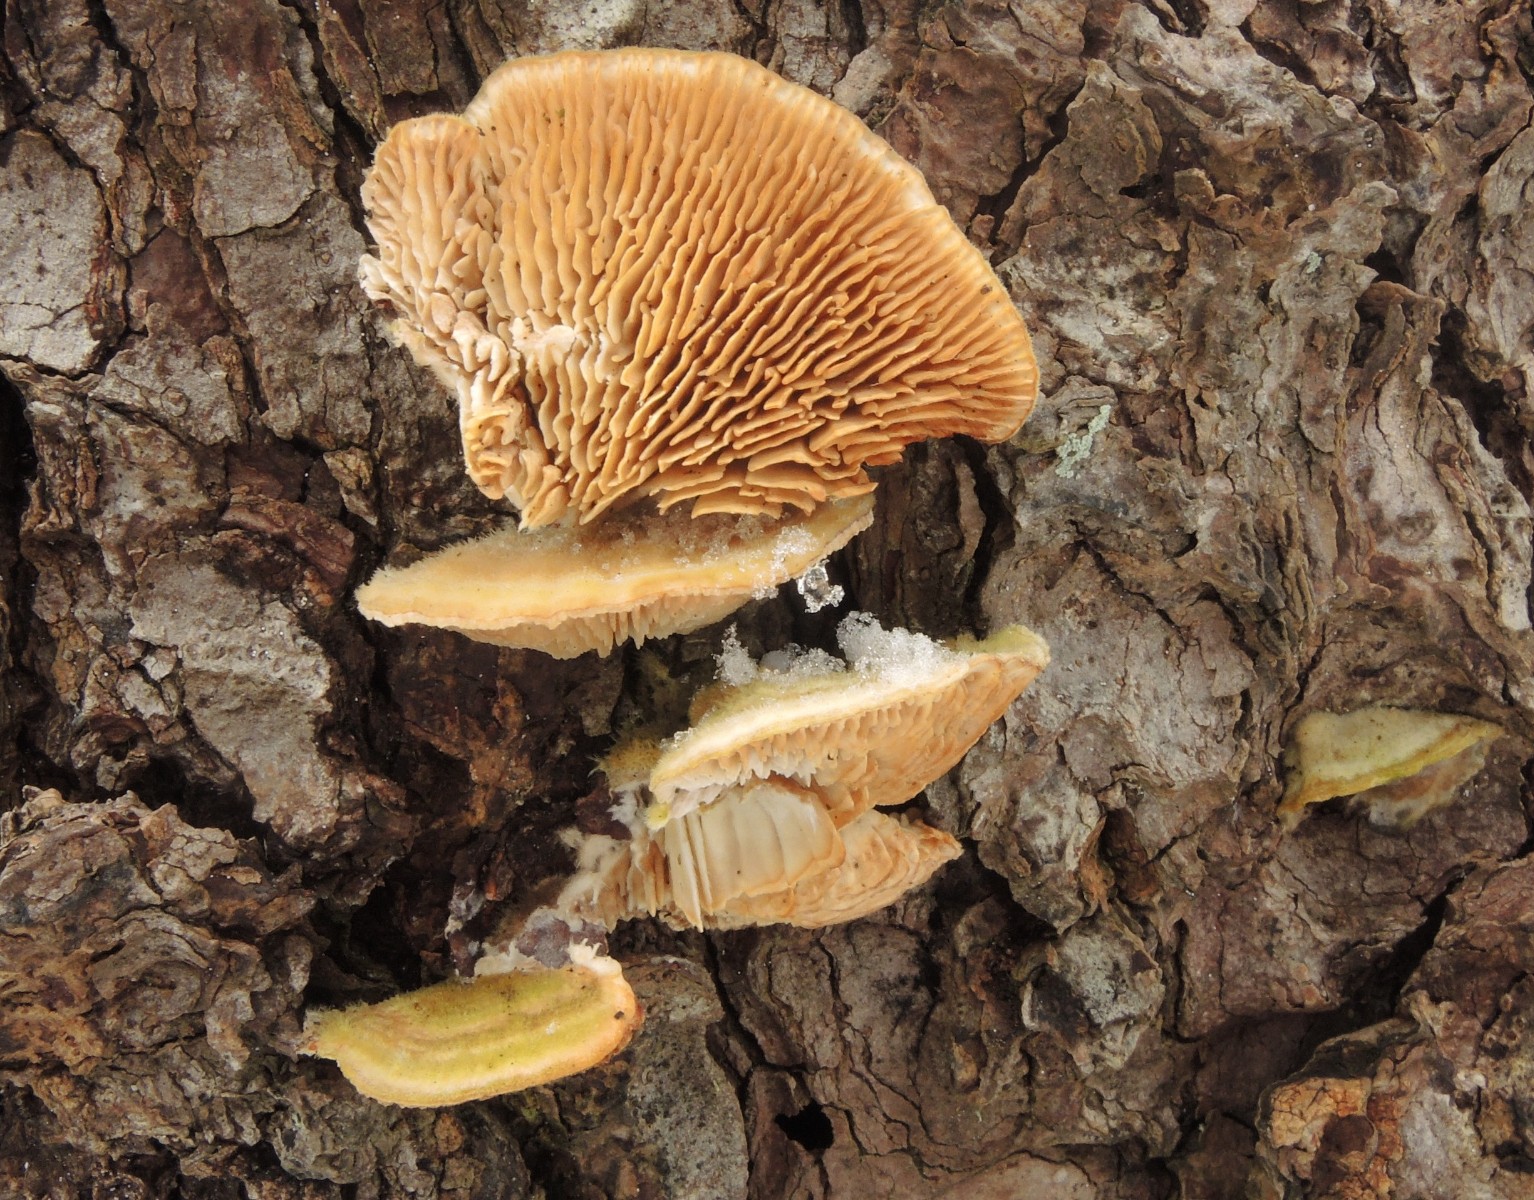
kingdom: Fungi
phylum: Basidiomycota
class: Agaricomycetes
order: Polyporales
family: Polyporaceae
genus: Lenzites
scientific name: Lenzites betulinus
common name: birke-læderporesvamp
